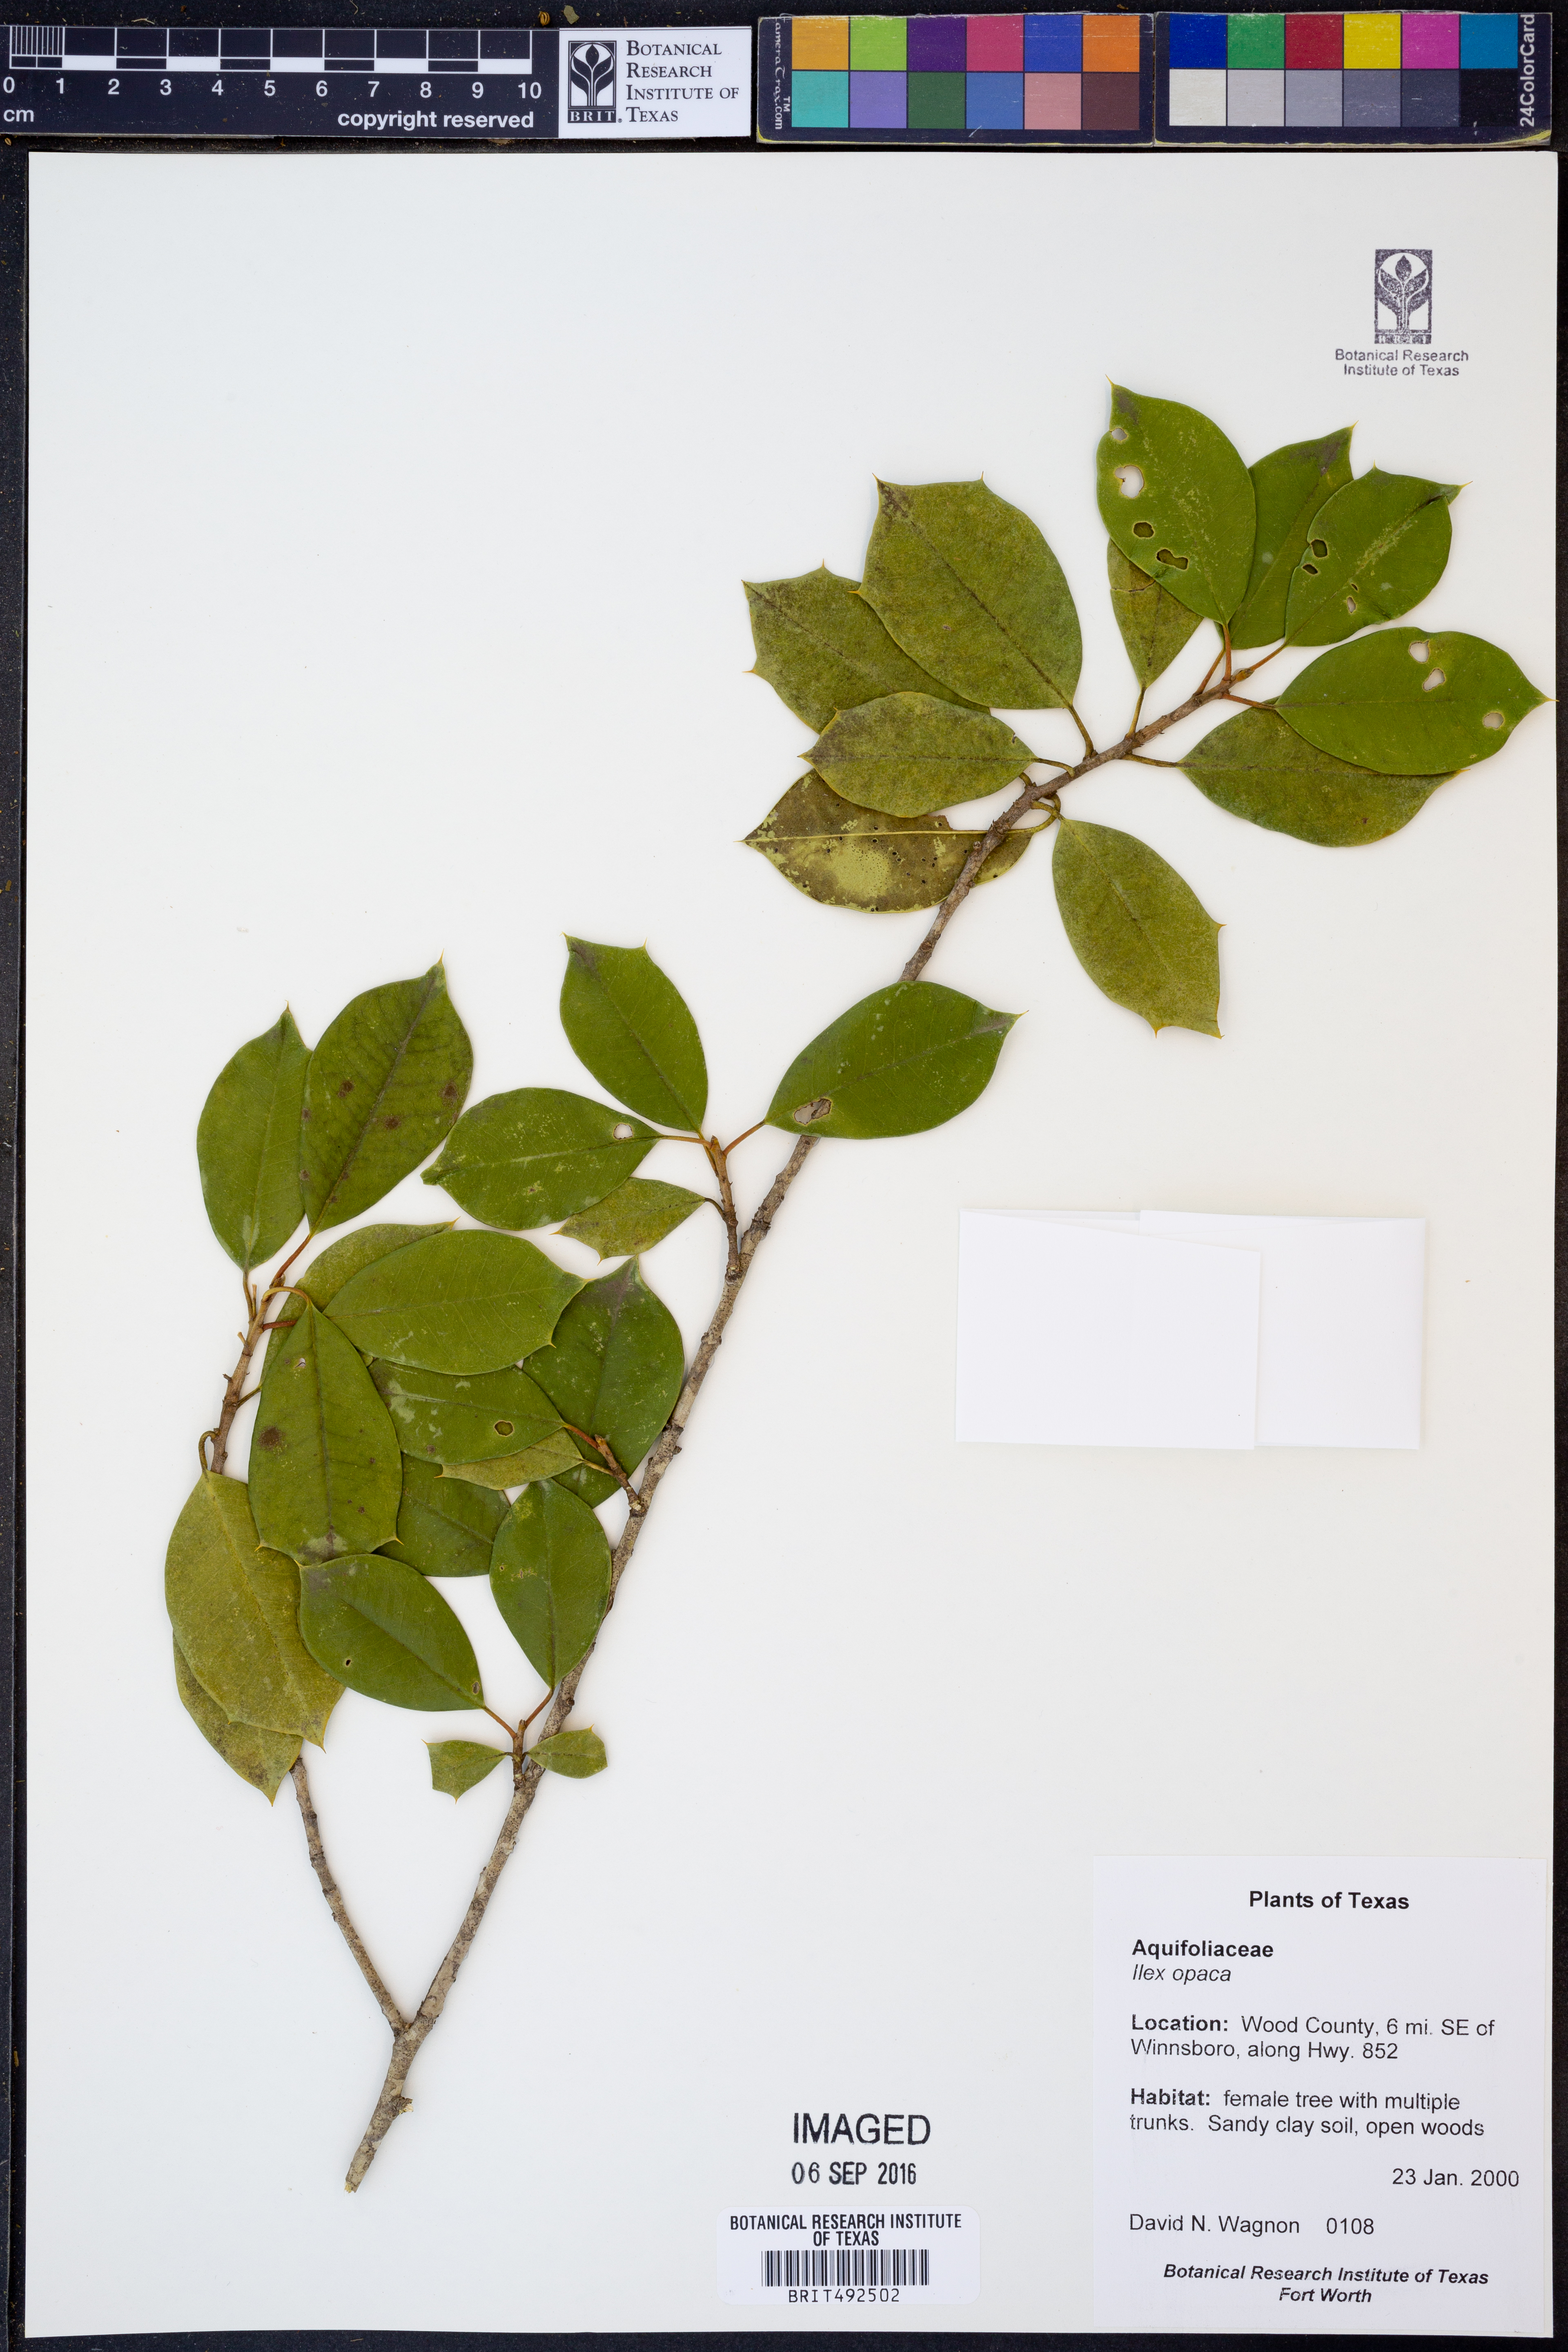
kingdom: Plantae
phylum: Tracheophyta
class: Magnoliopsida
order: Aquifoliales
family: Aquifoliaceae
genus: Ilex
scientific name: Ilex opaca
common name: American holly
